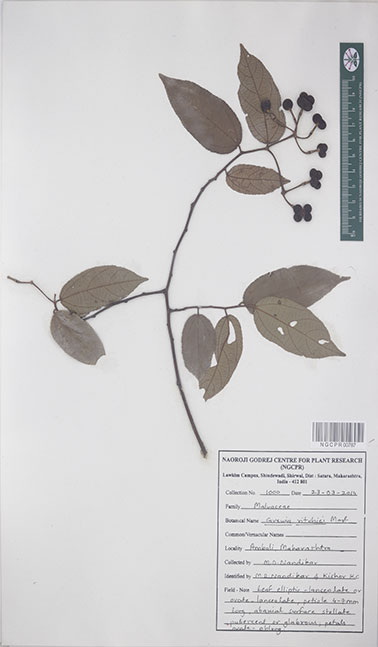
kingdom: Plantae
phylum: Tracheophyta
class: Magnoliopsida
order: Malvales
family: Malvaceae
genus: Grewia
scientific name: Grewia ritchiei
